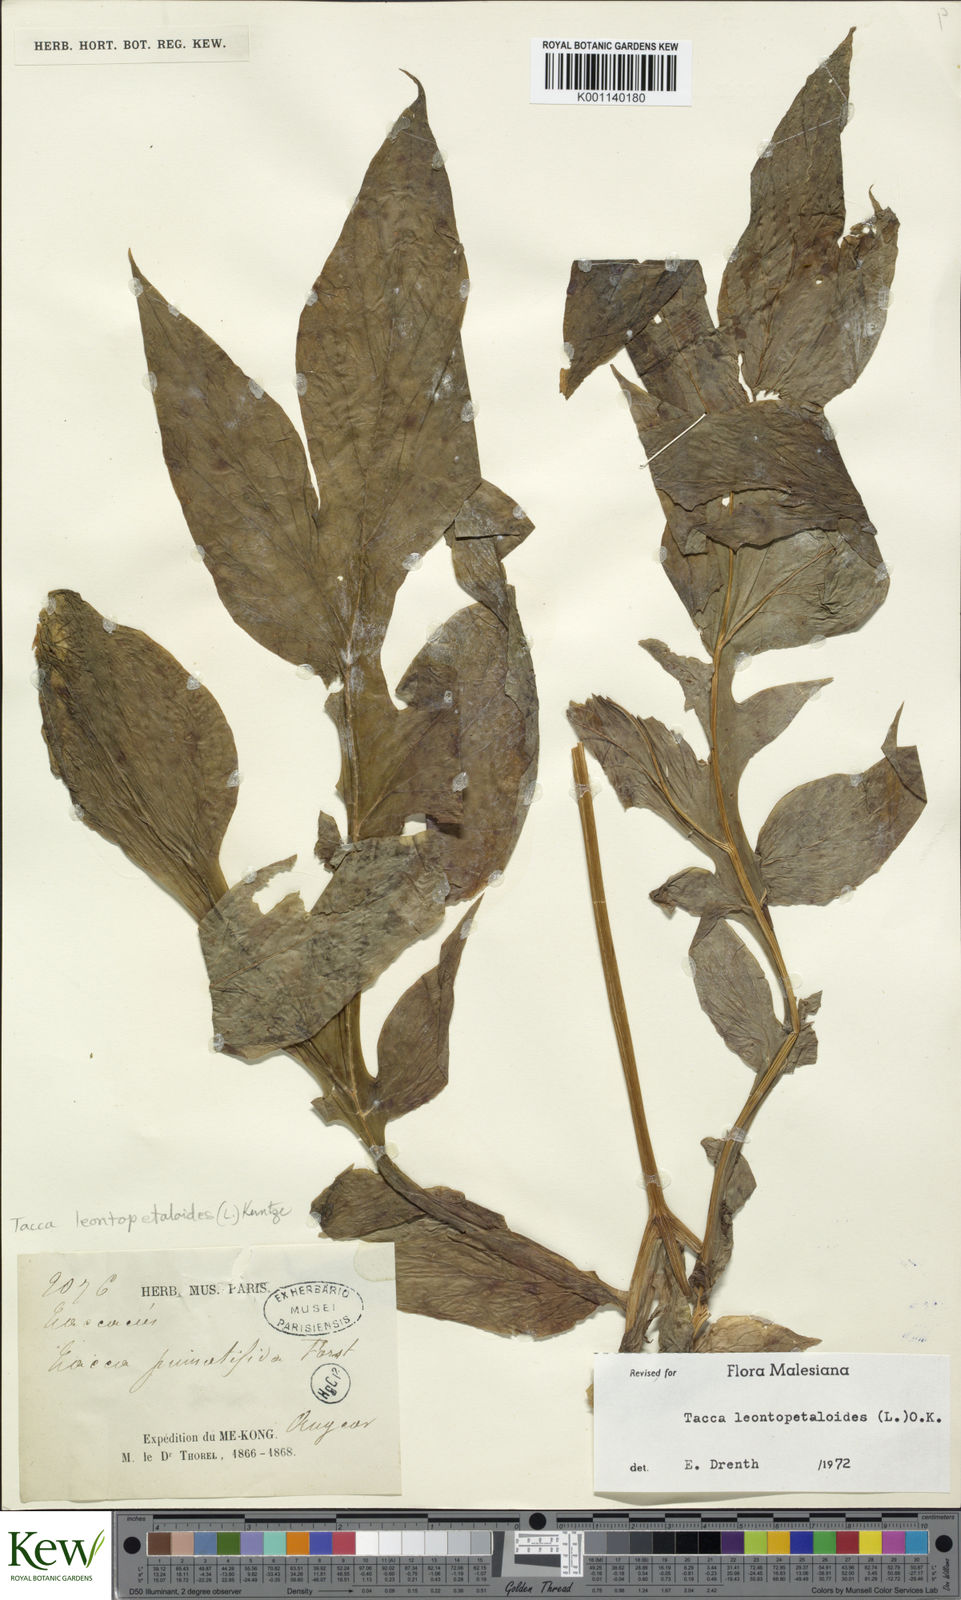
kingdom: Plantae
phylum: Tracheophyta
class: Liliopsida
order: Dioscoreales
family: Dioscoreaceae
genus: Tacca
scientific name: Tacca leontopetaloides
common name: Arrowroot
